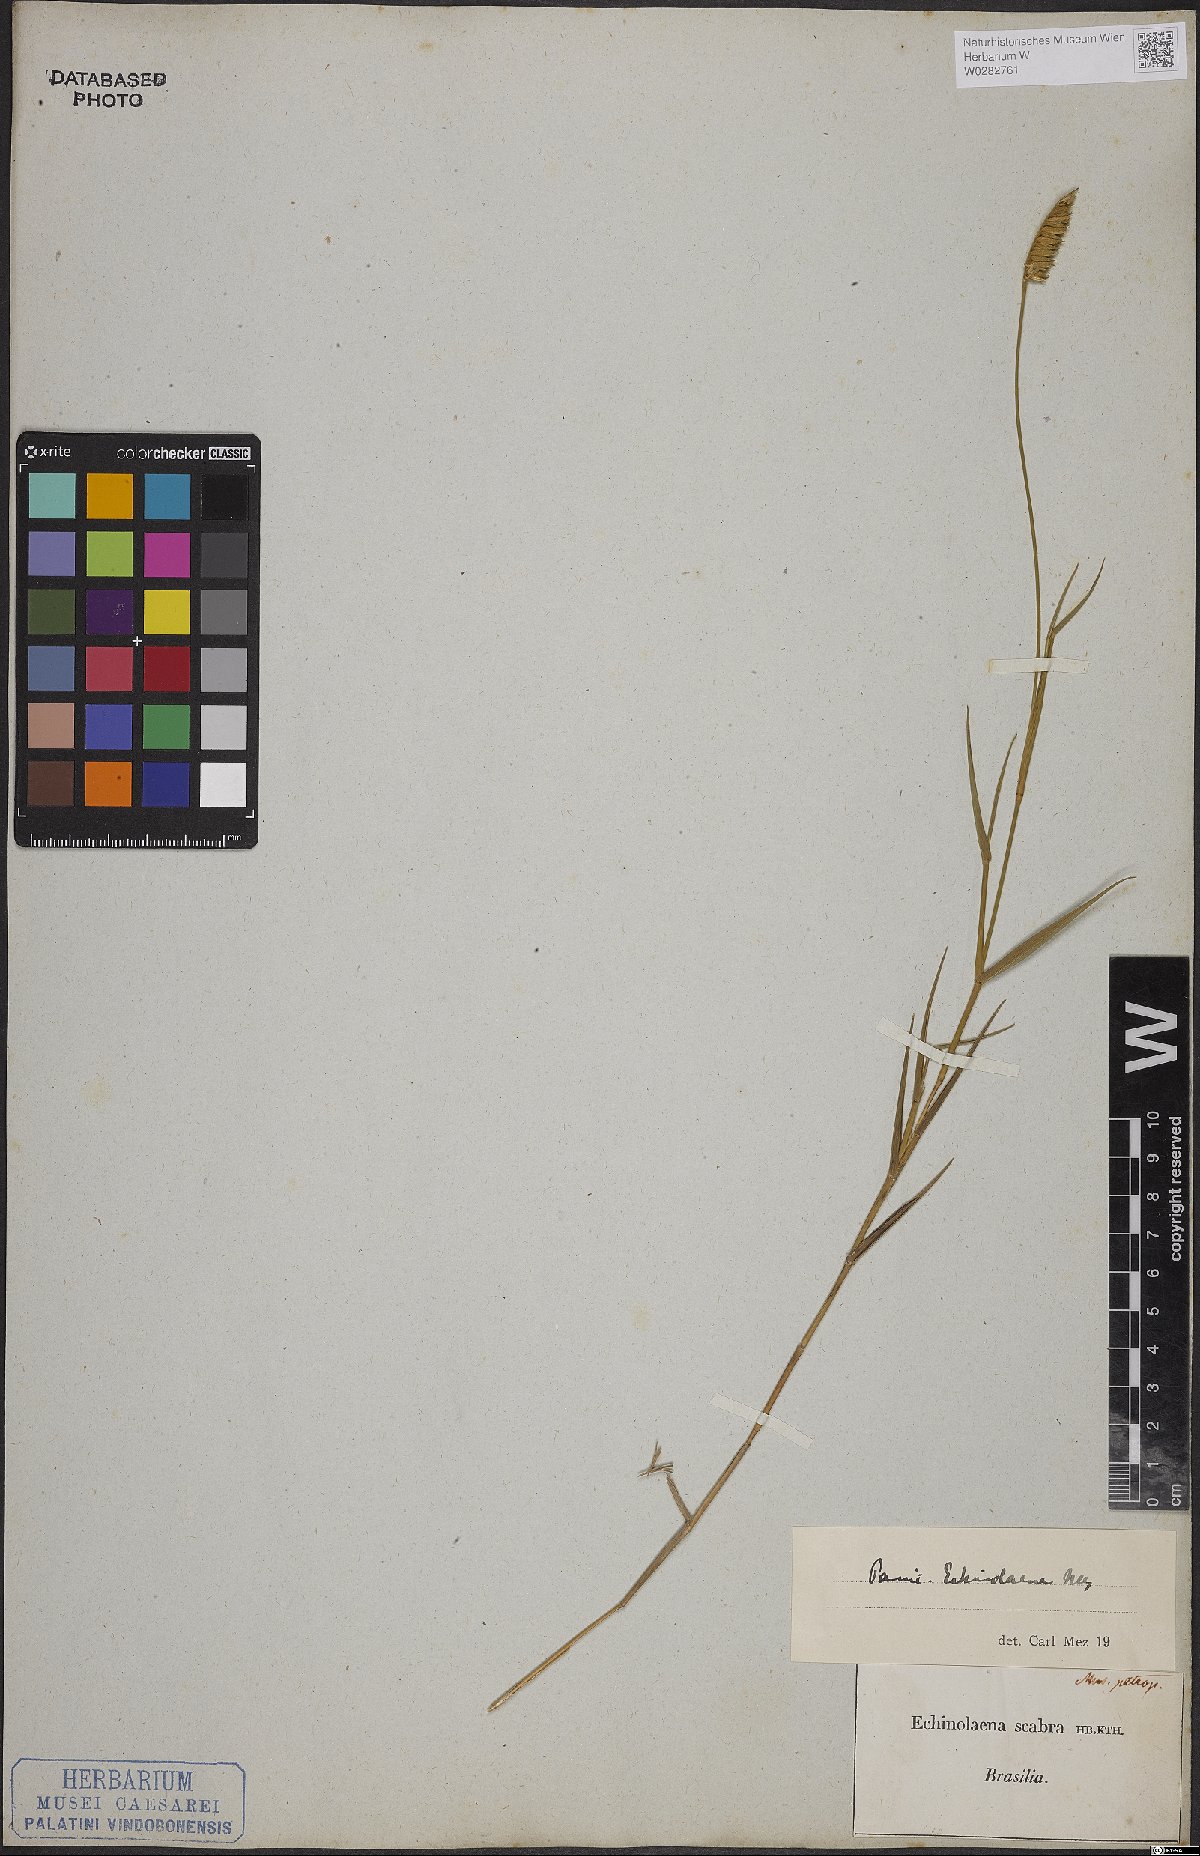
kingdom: Plantae
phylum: Tracheophyta
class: Liliopsida
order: Poales
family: Poaceae
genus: Echinolaena
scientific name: Echinolaena inflexa
